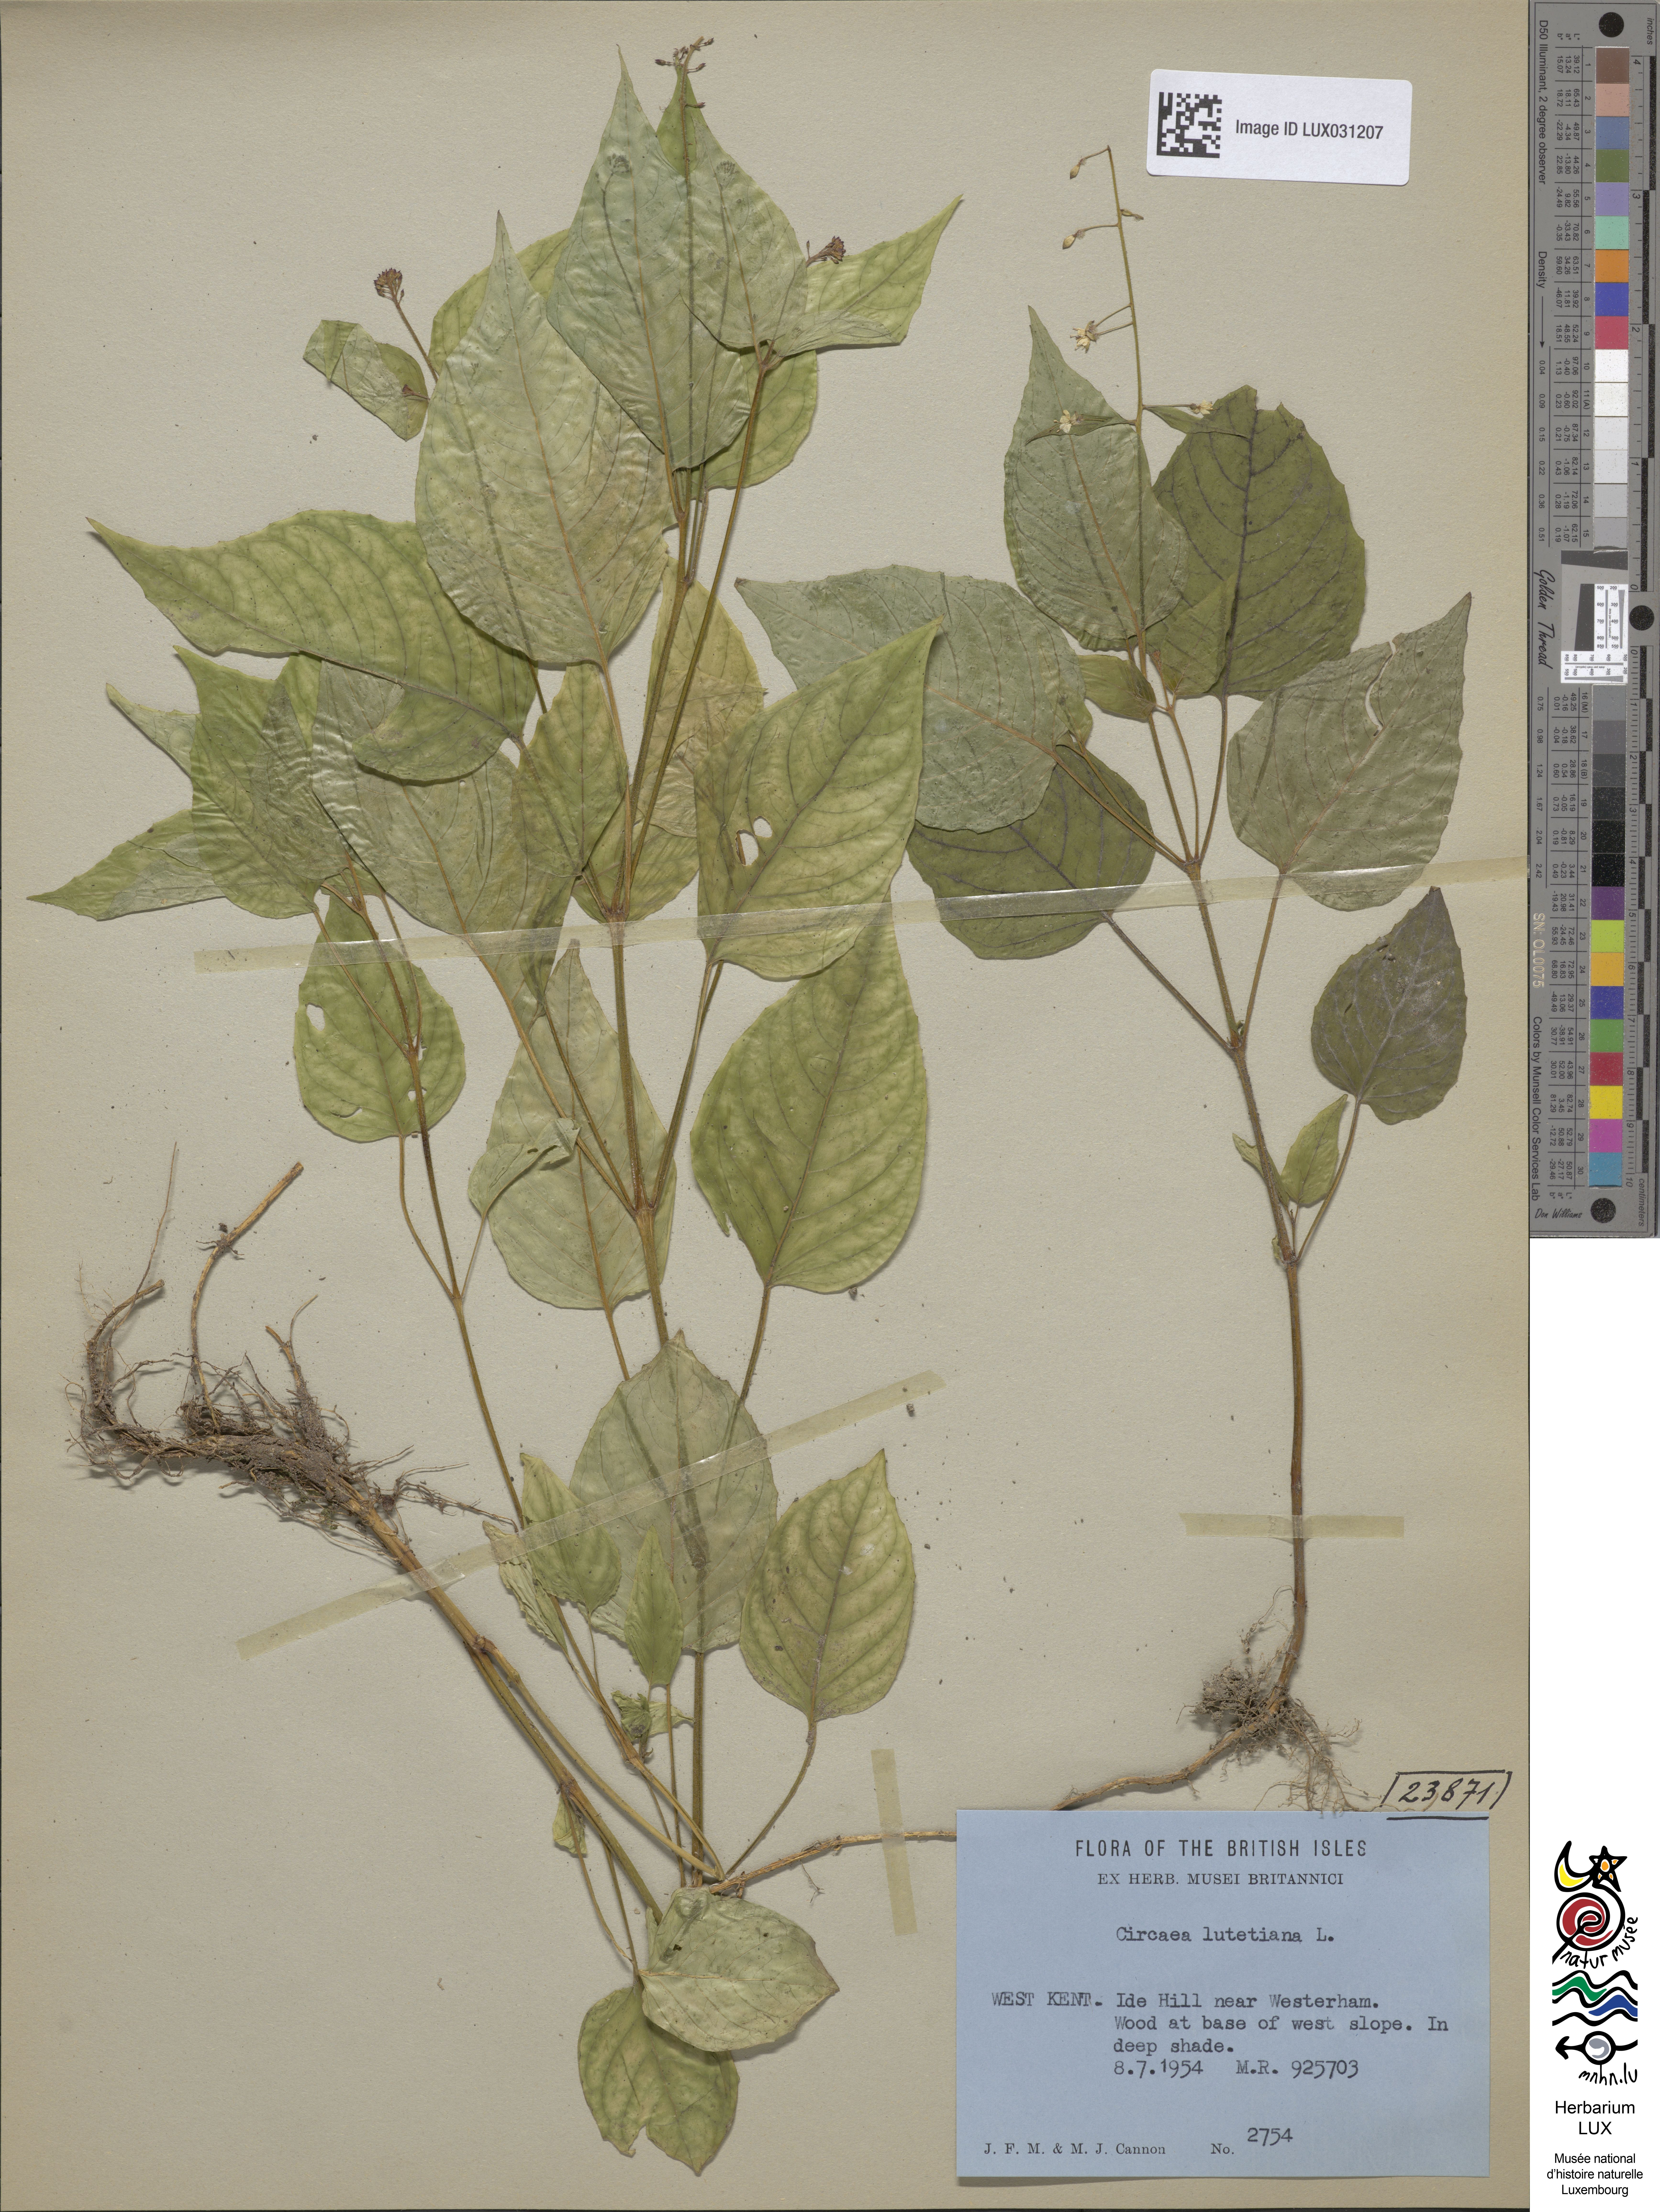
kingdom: Plantae
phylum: Tracheophyta
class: Magnoliopsida
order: Myrtales
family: Onagraceae
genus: Circaea
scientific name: Circaea lutetiana
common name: Enchanter's-nightshade
